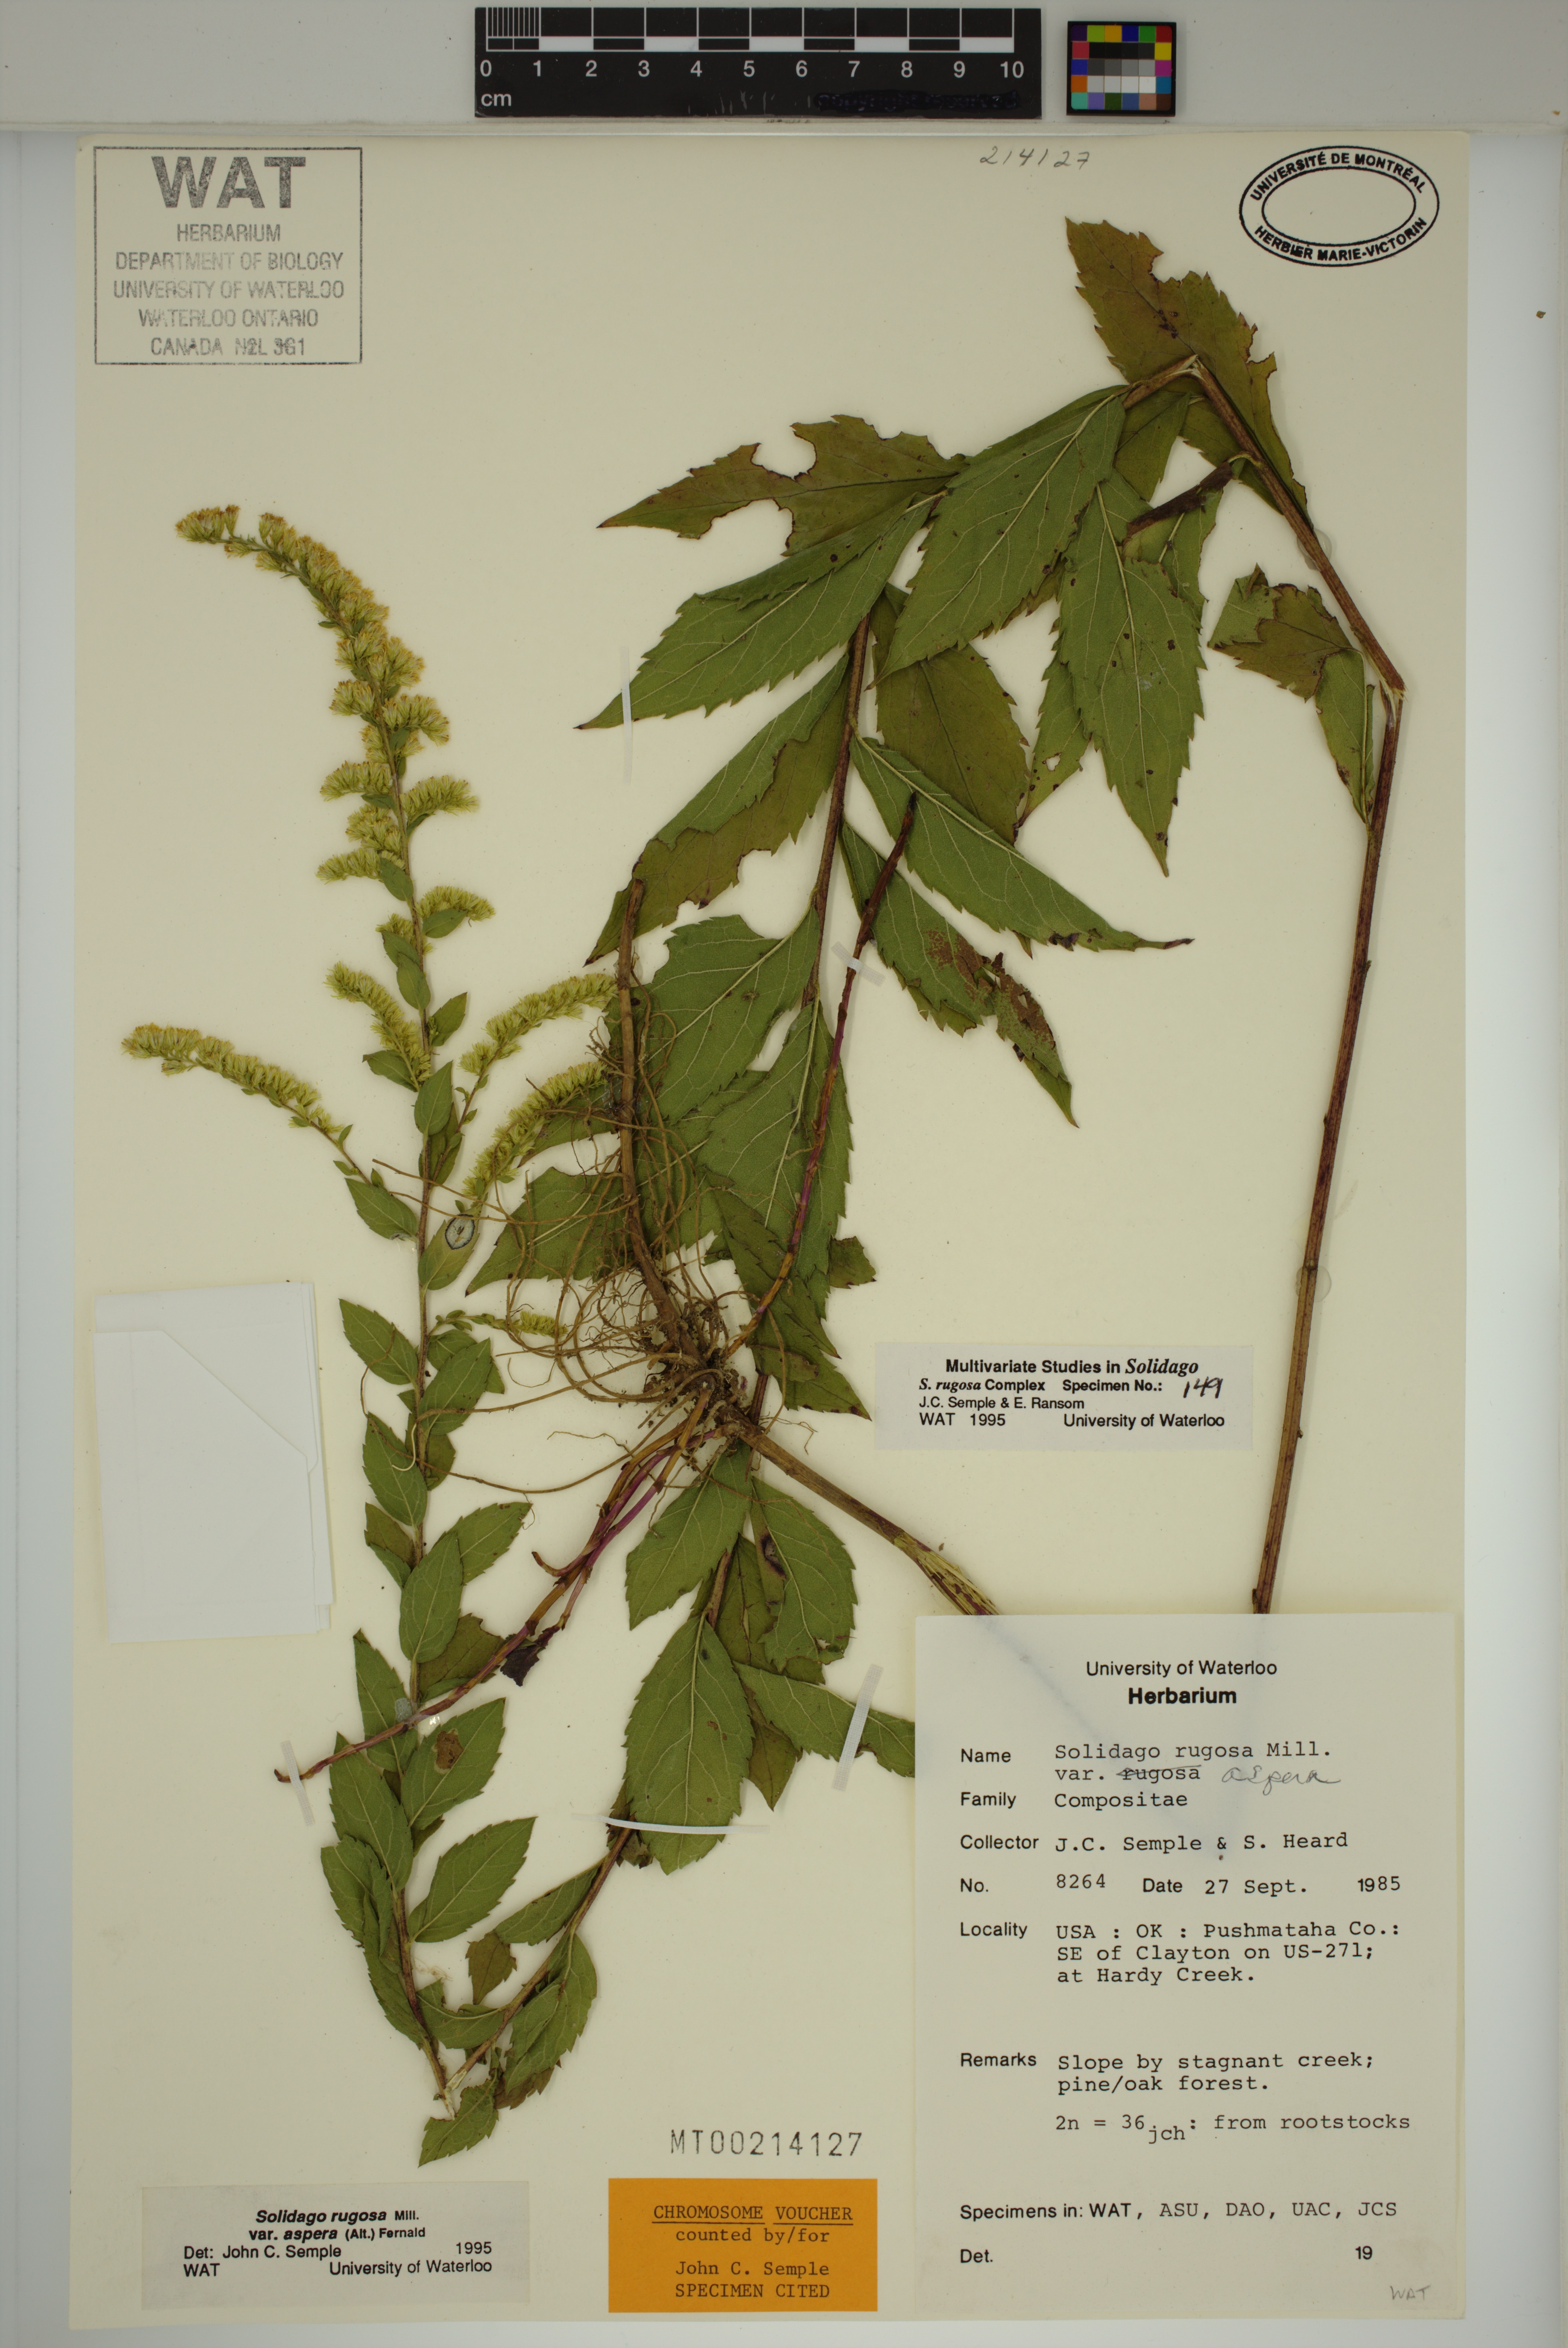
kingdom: Plantae
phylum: Tracheophyta
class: Magnoliopsida
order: Asterales
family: Asteraceae
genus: Solidago
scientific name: Solidago rugosa
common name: Rough-stemmed goldenrod
